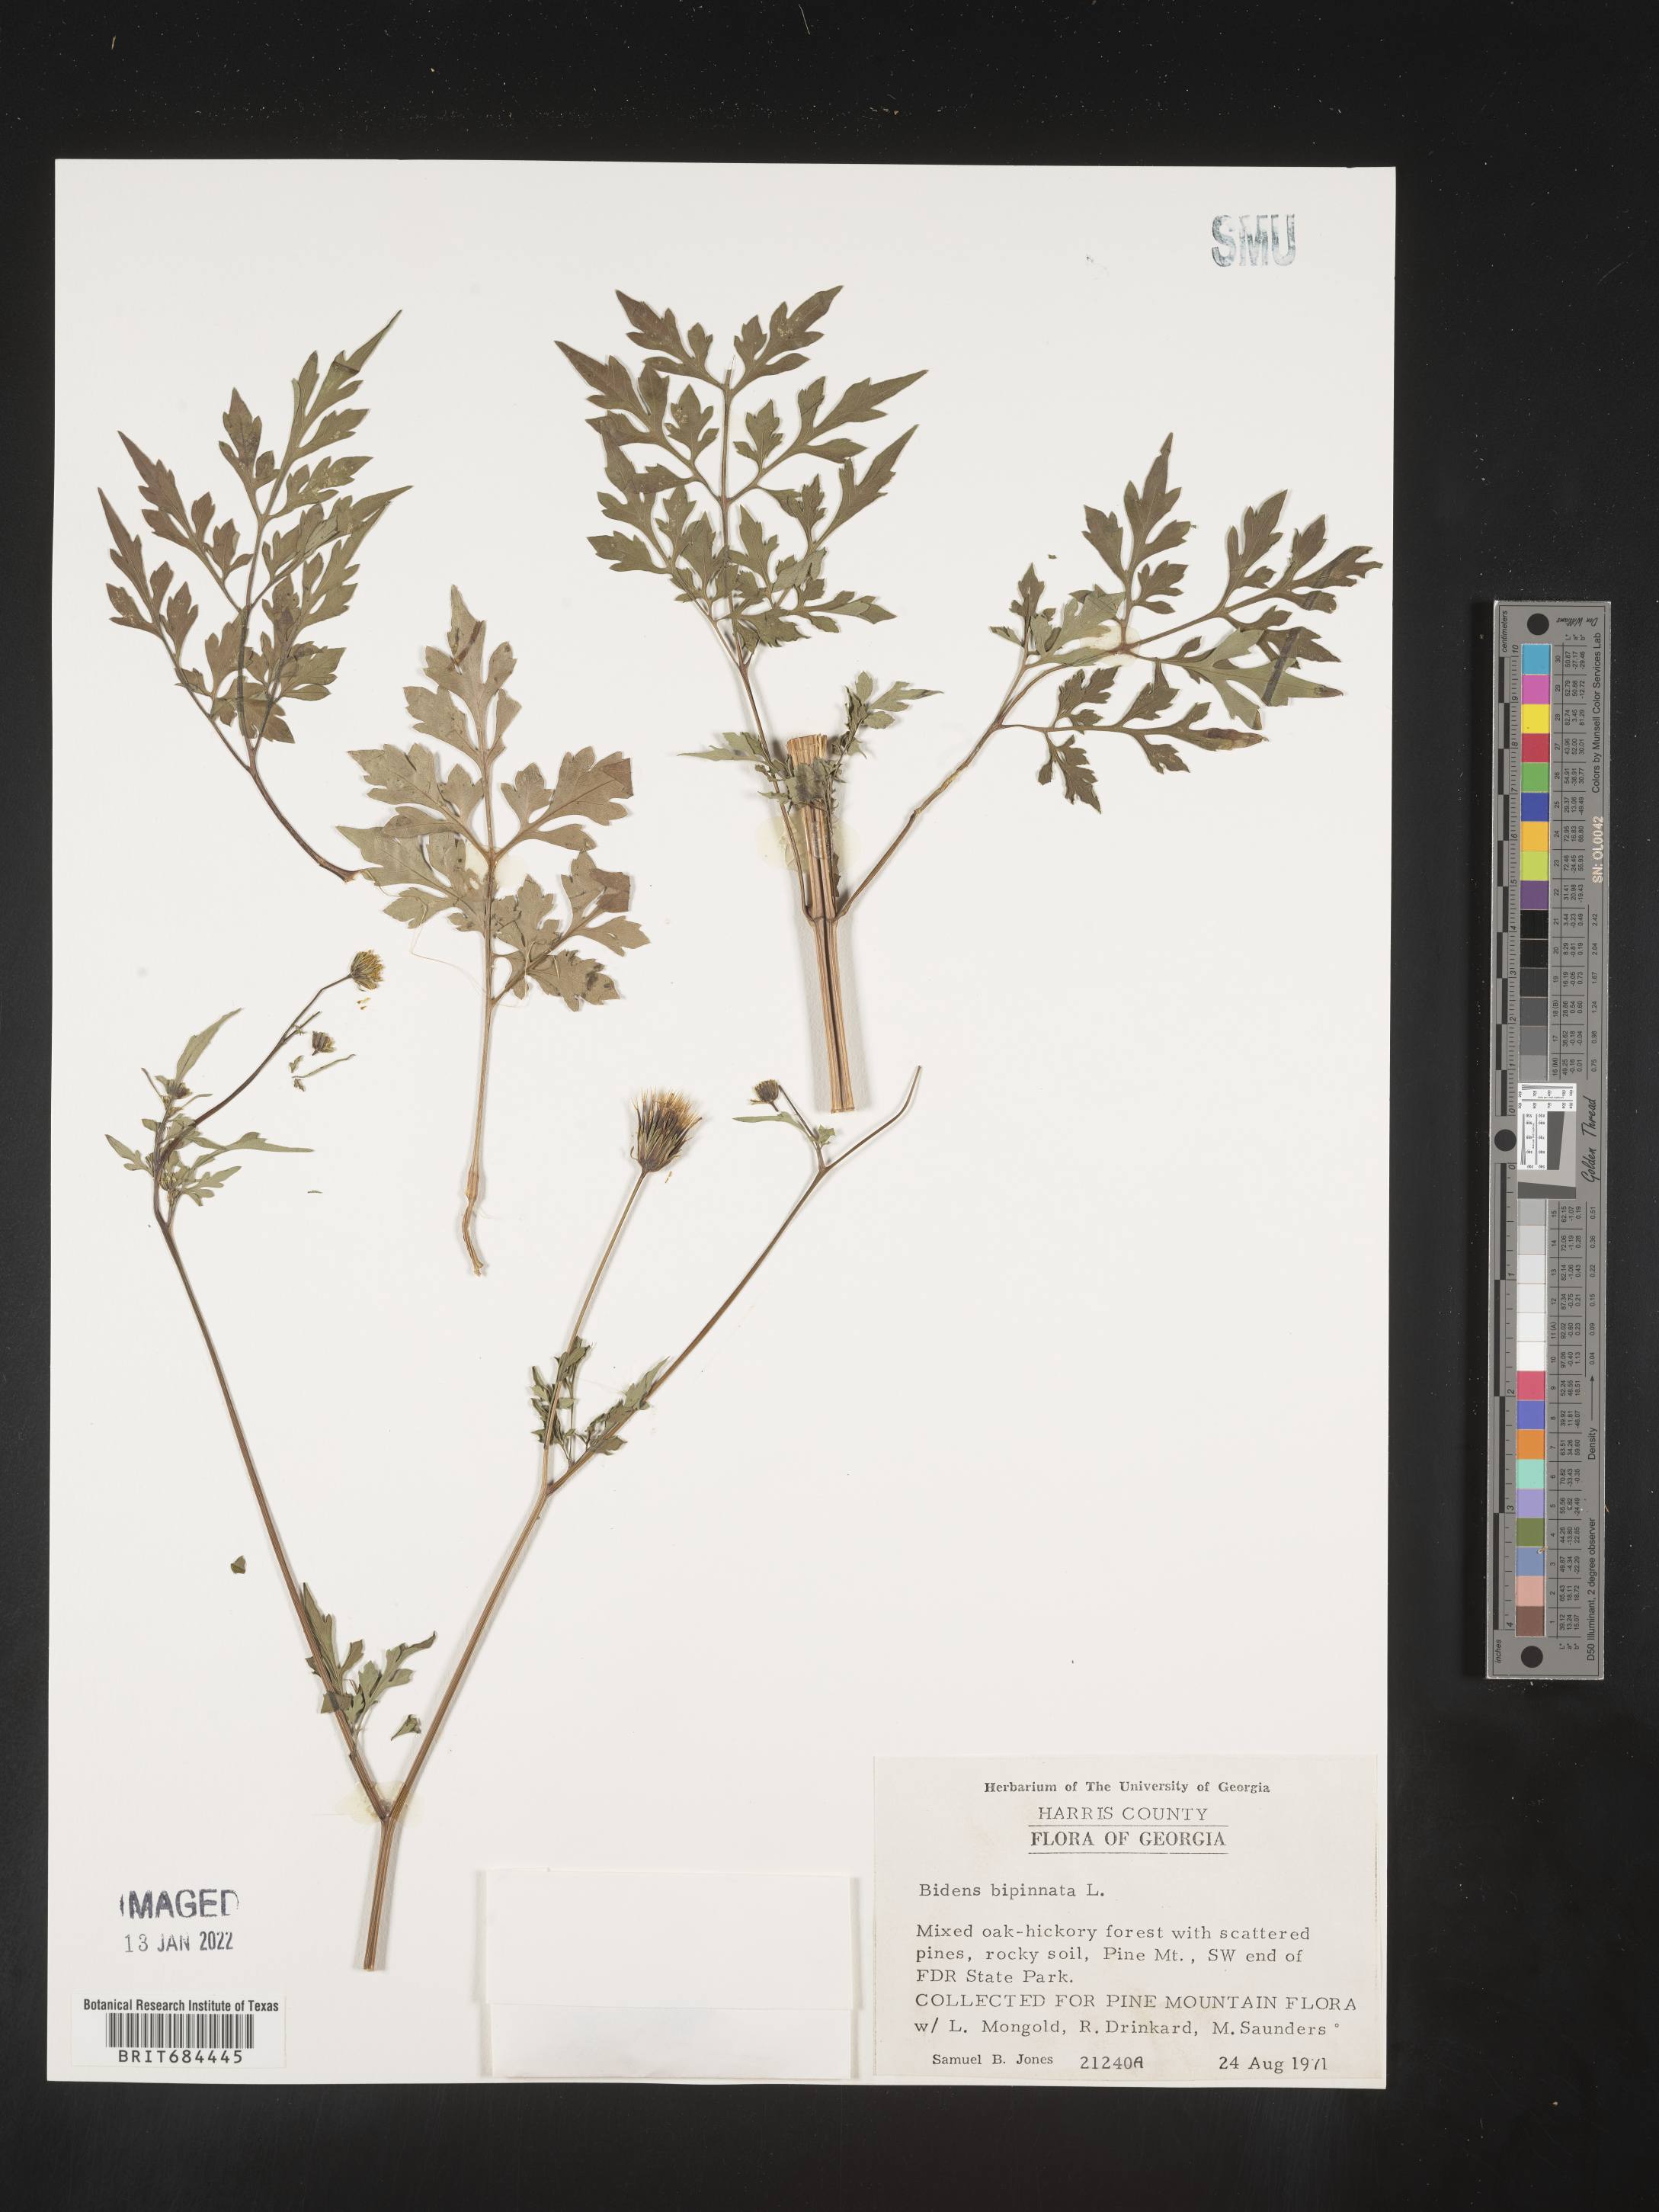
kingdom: Plantae
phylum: Tracheophyta
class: Magnoliopsida
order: Asterales
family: Asteraceae
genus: Bidens
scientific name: Bidens bipinnata
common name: Spanish-needles
